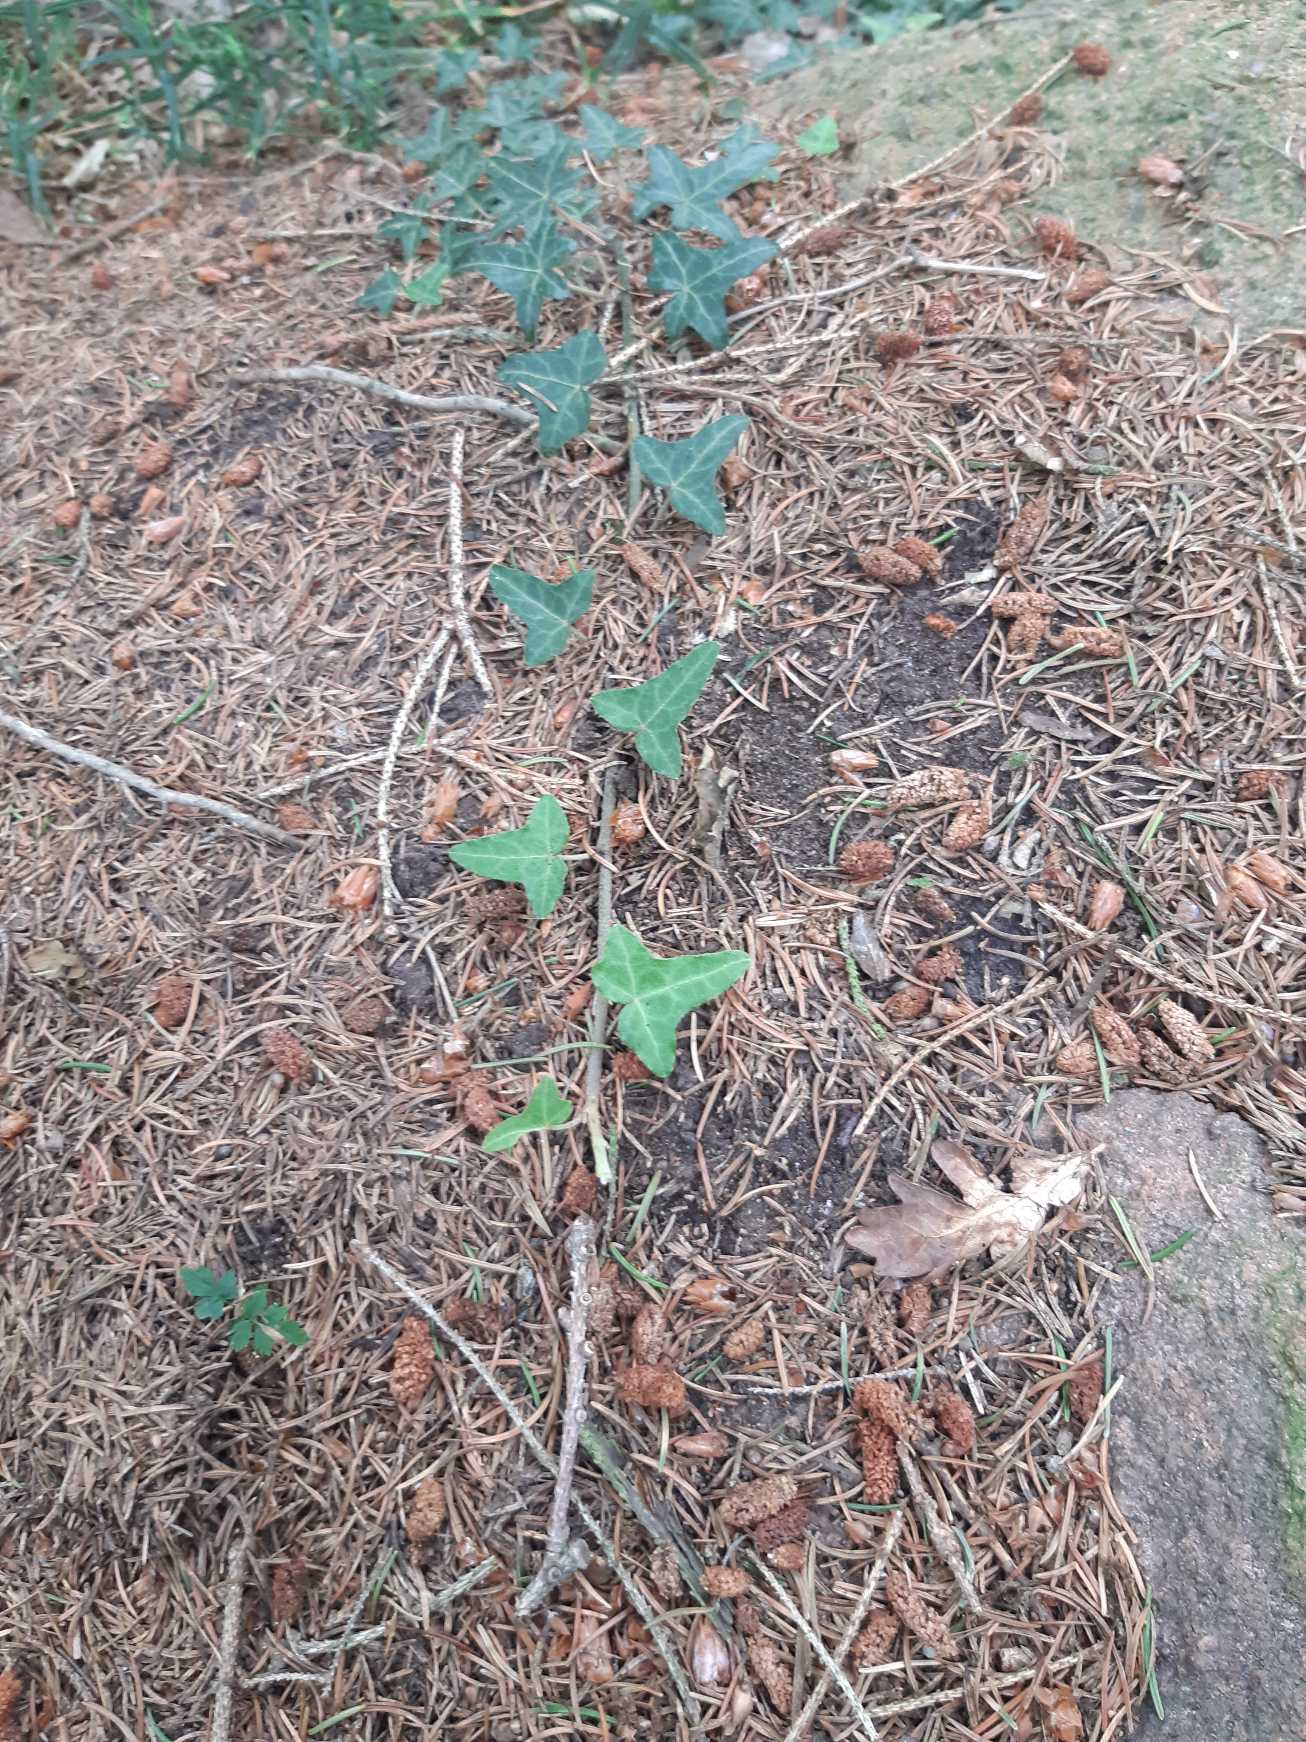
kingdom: Plantae
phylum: Tracheophyta
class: Magnoliopsida
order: Apiales
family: Araliaceae
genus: Hedera
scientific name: Hedera helix
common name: Vedbend
